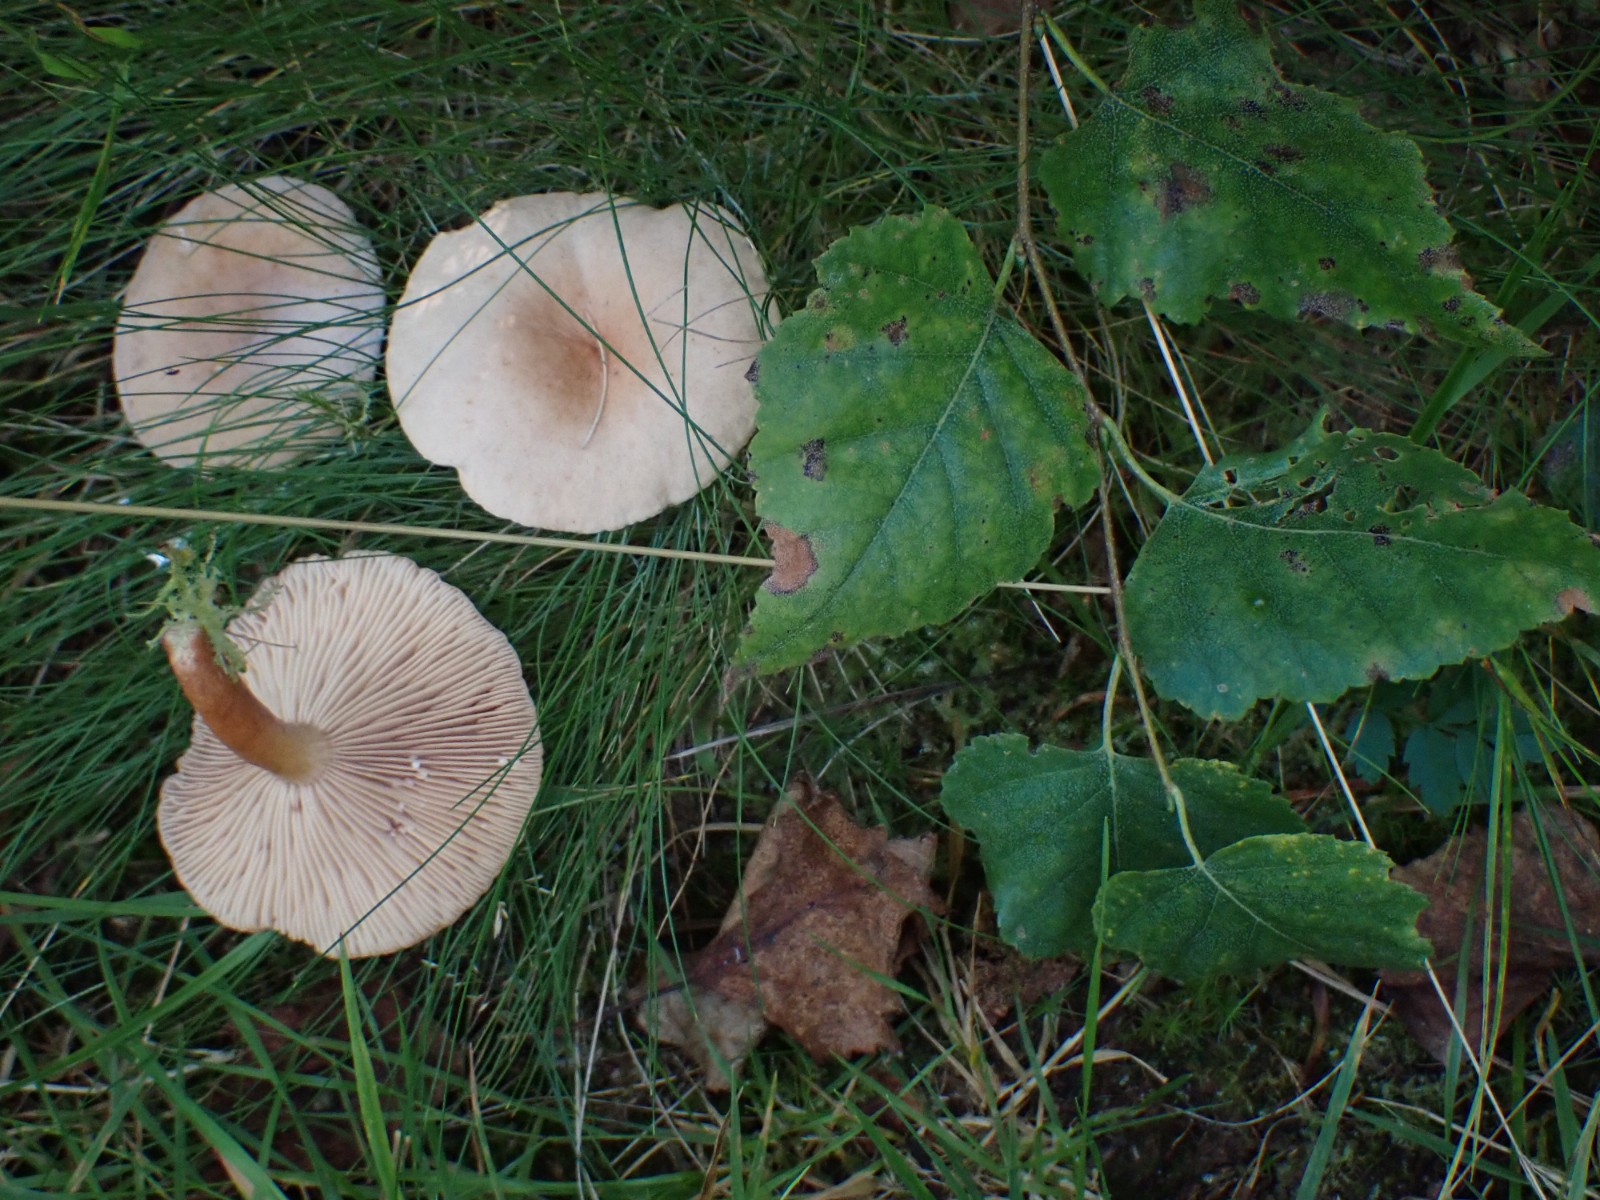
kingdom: Fungi
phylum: Basidiomycota
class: Agaricomycetes
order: Russulales
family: Russulaceae
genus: Lactarius
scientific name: Lactarius tabidus
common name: rynket mælkehat
